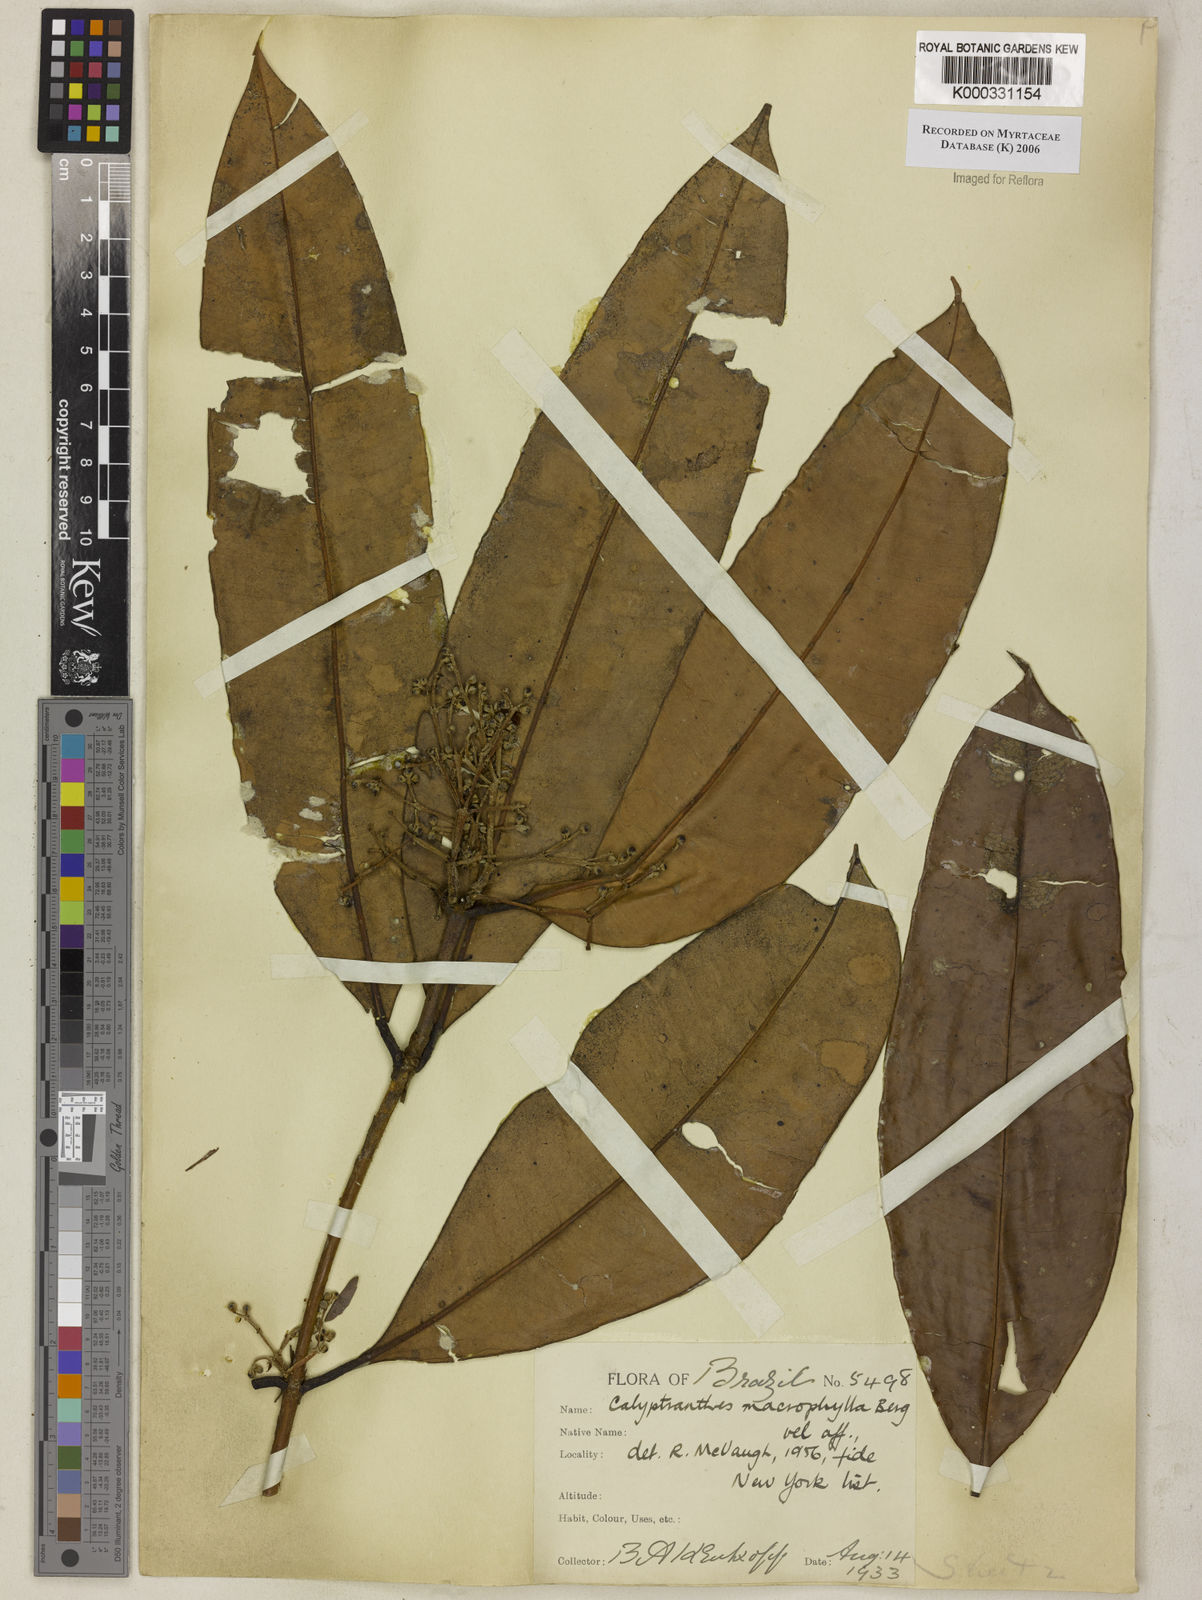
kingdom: Plantae
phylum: Tracheophyta
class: Magnoliopsida
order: Myrtales
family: Myrtaceae
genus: Myrcia
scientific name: Myrcia neomacrophylla
